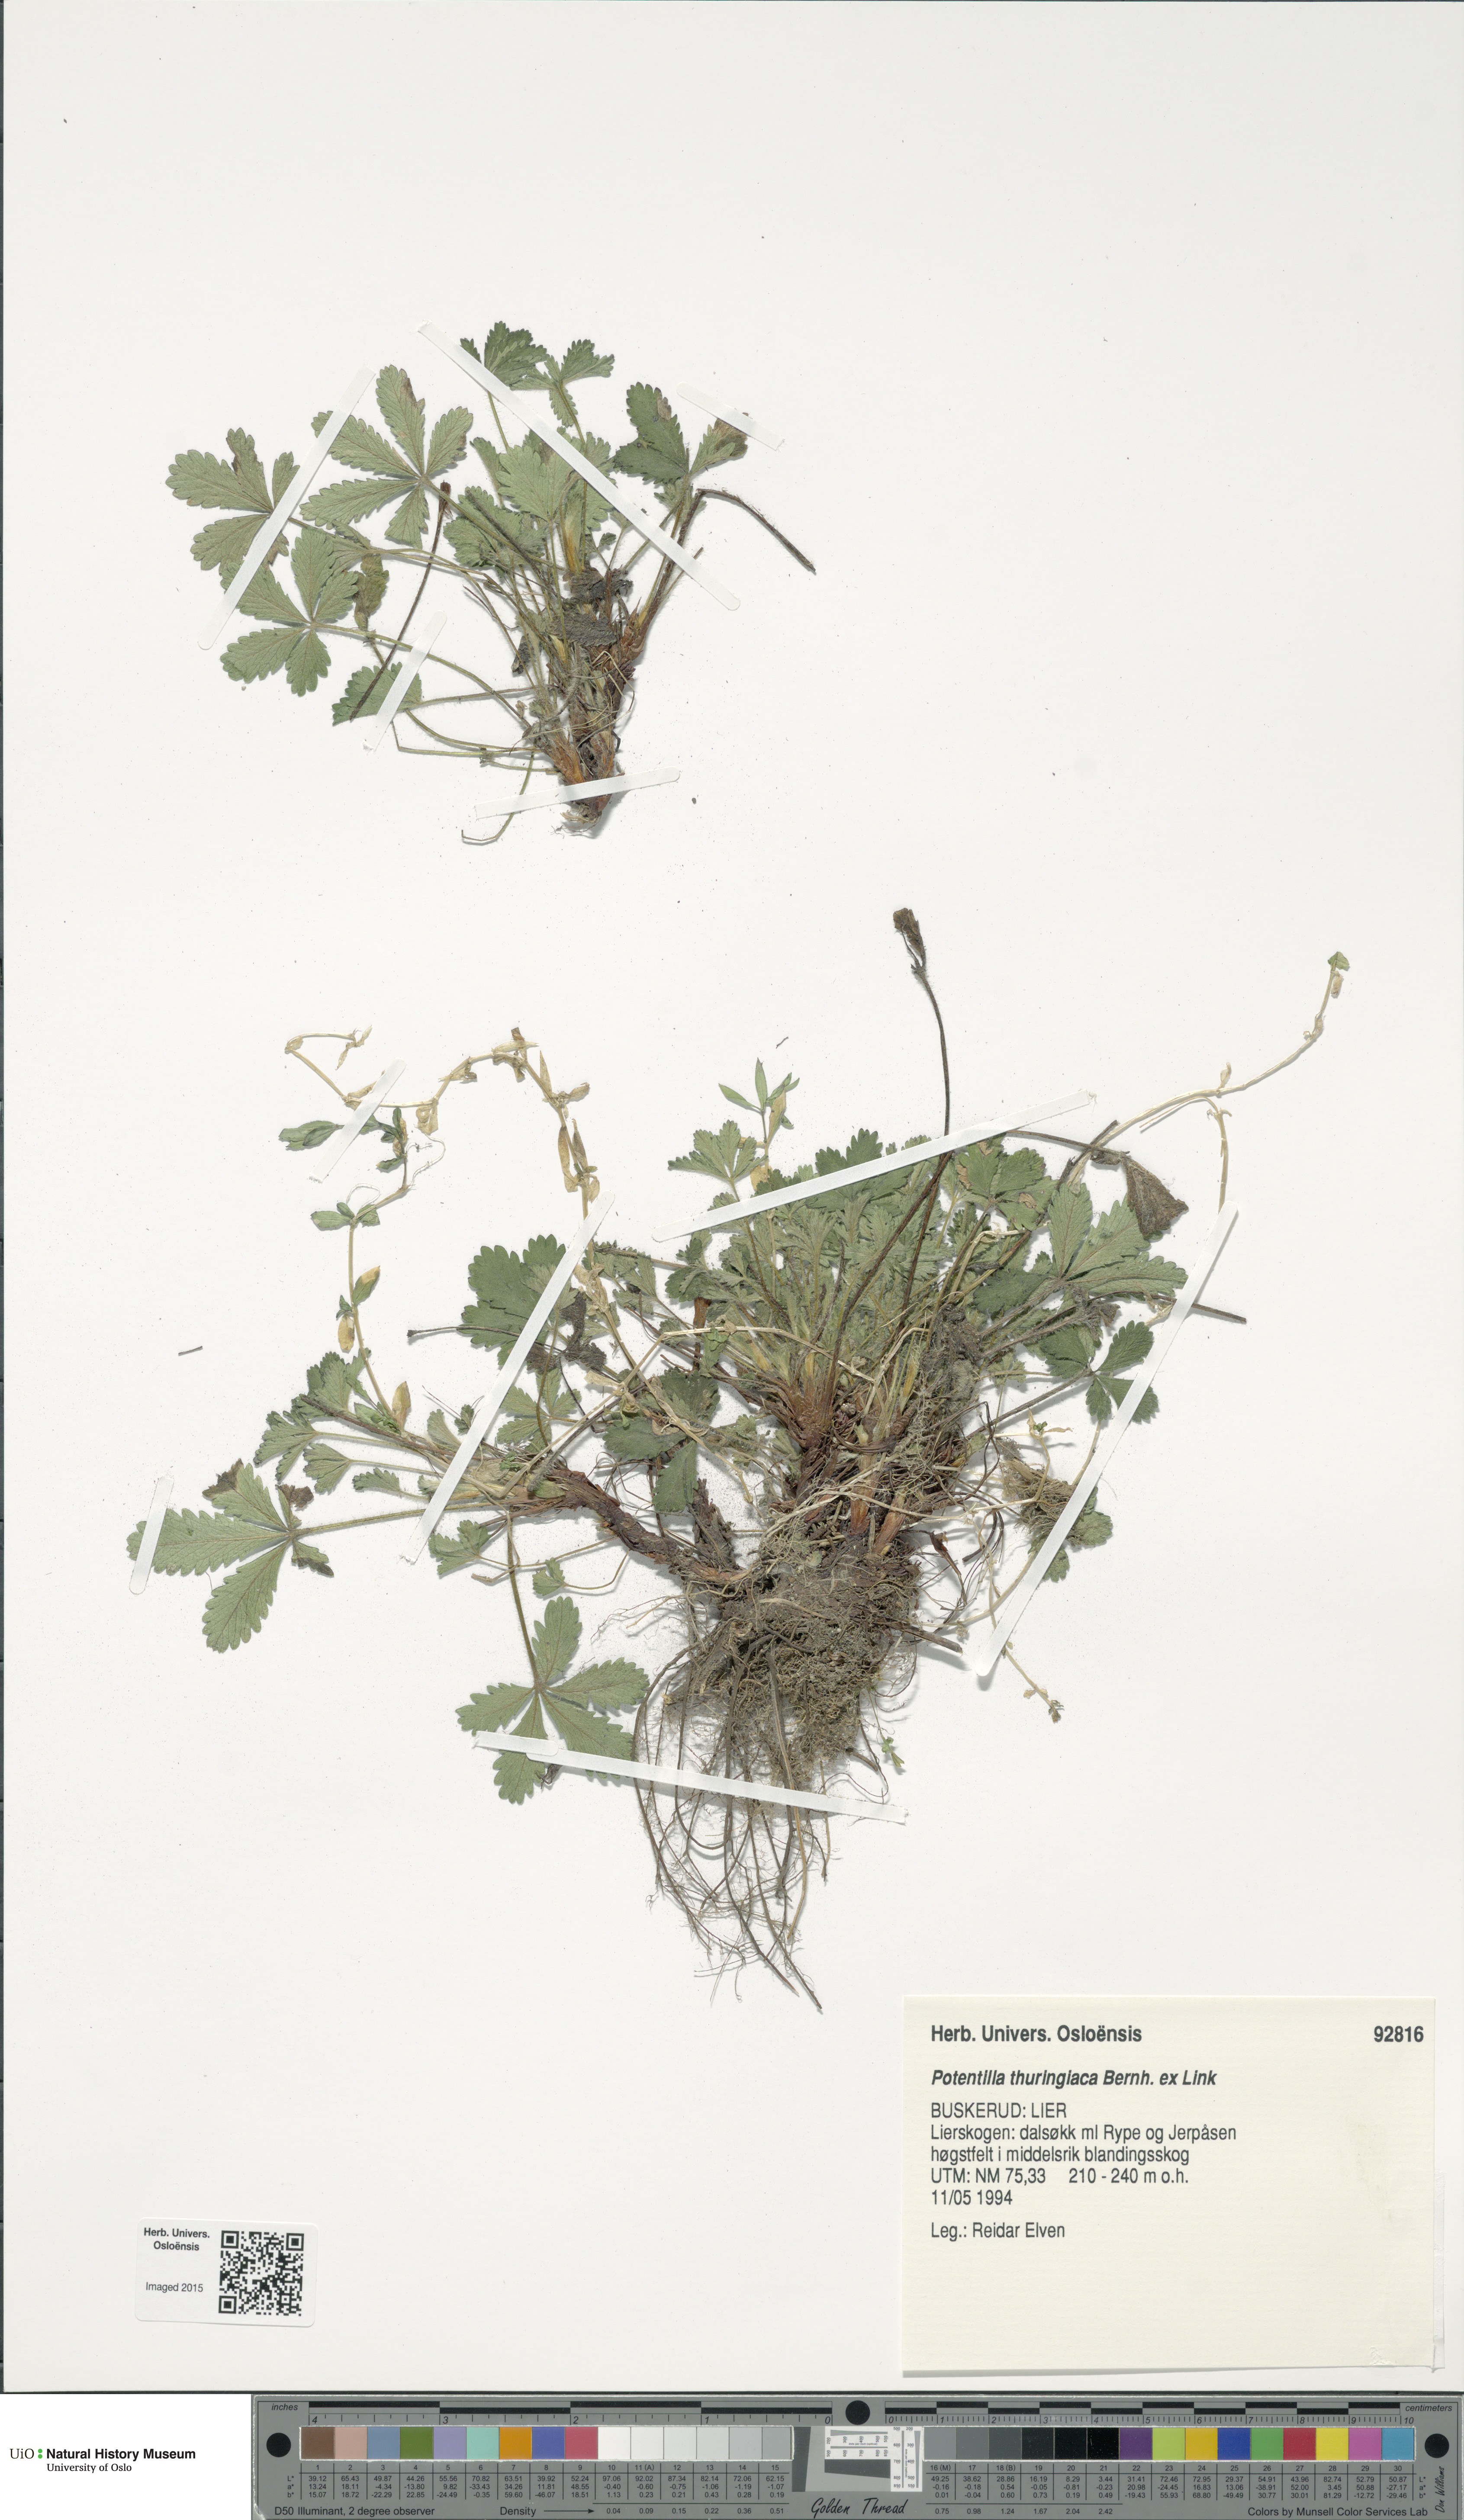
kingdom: Plantae
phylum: Tracheophyta
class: Magnoliopsida
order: Rosales
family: Rosaceae
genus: Potentilla
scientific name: Potentilla thuringiaca
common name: European cinquefoil
